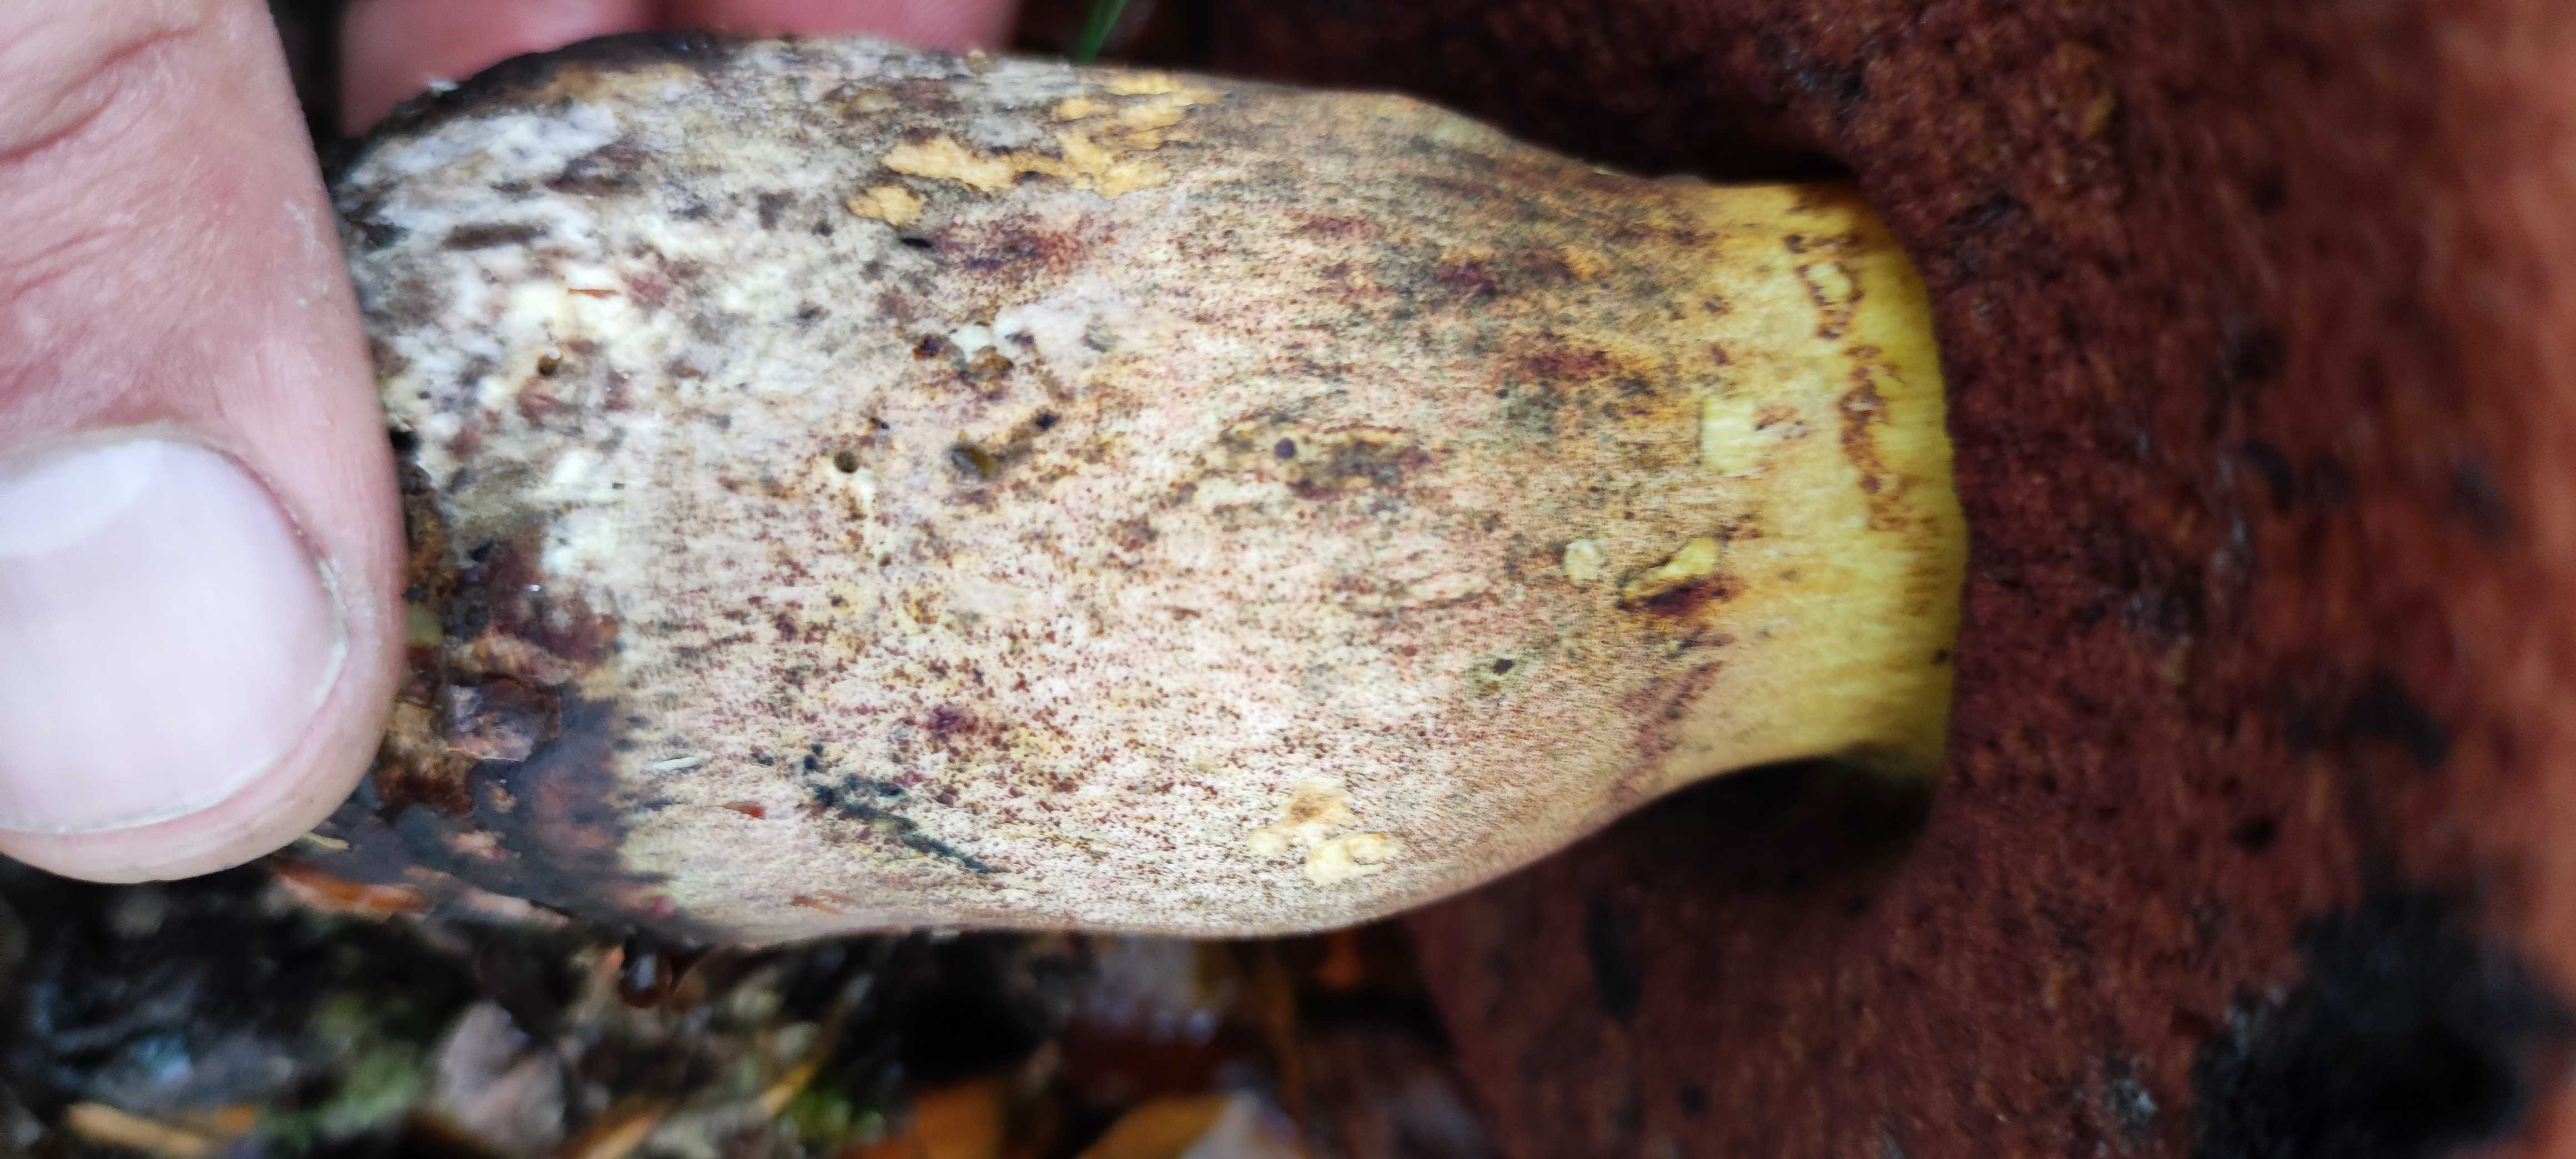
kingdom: Fungi
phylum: Basidiomycota
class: Agaricomycetes
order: Boletales
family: Boletaceae
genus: Neoboletus
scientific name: Neoboletus
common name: indigorørhat
